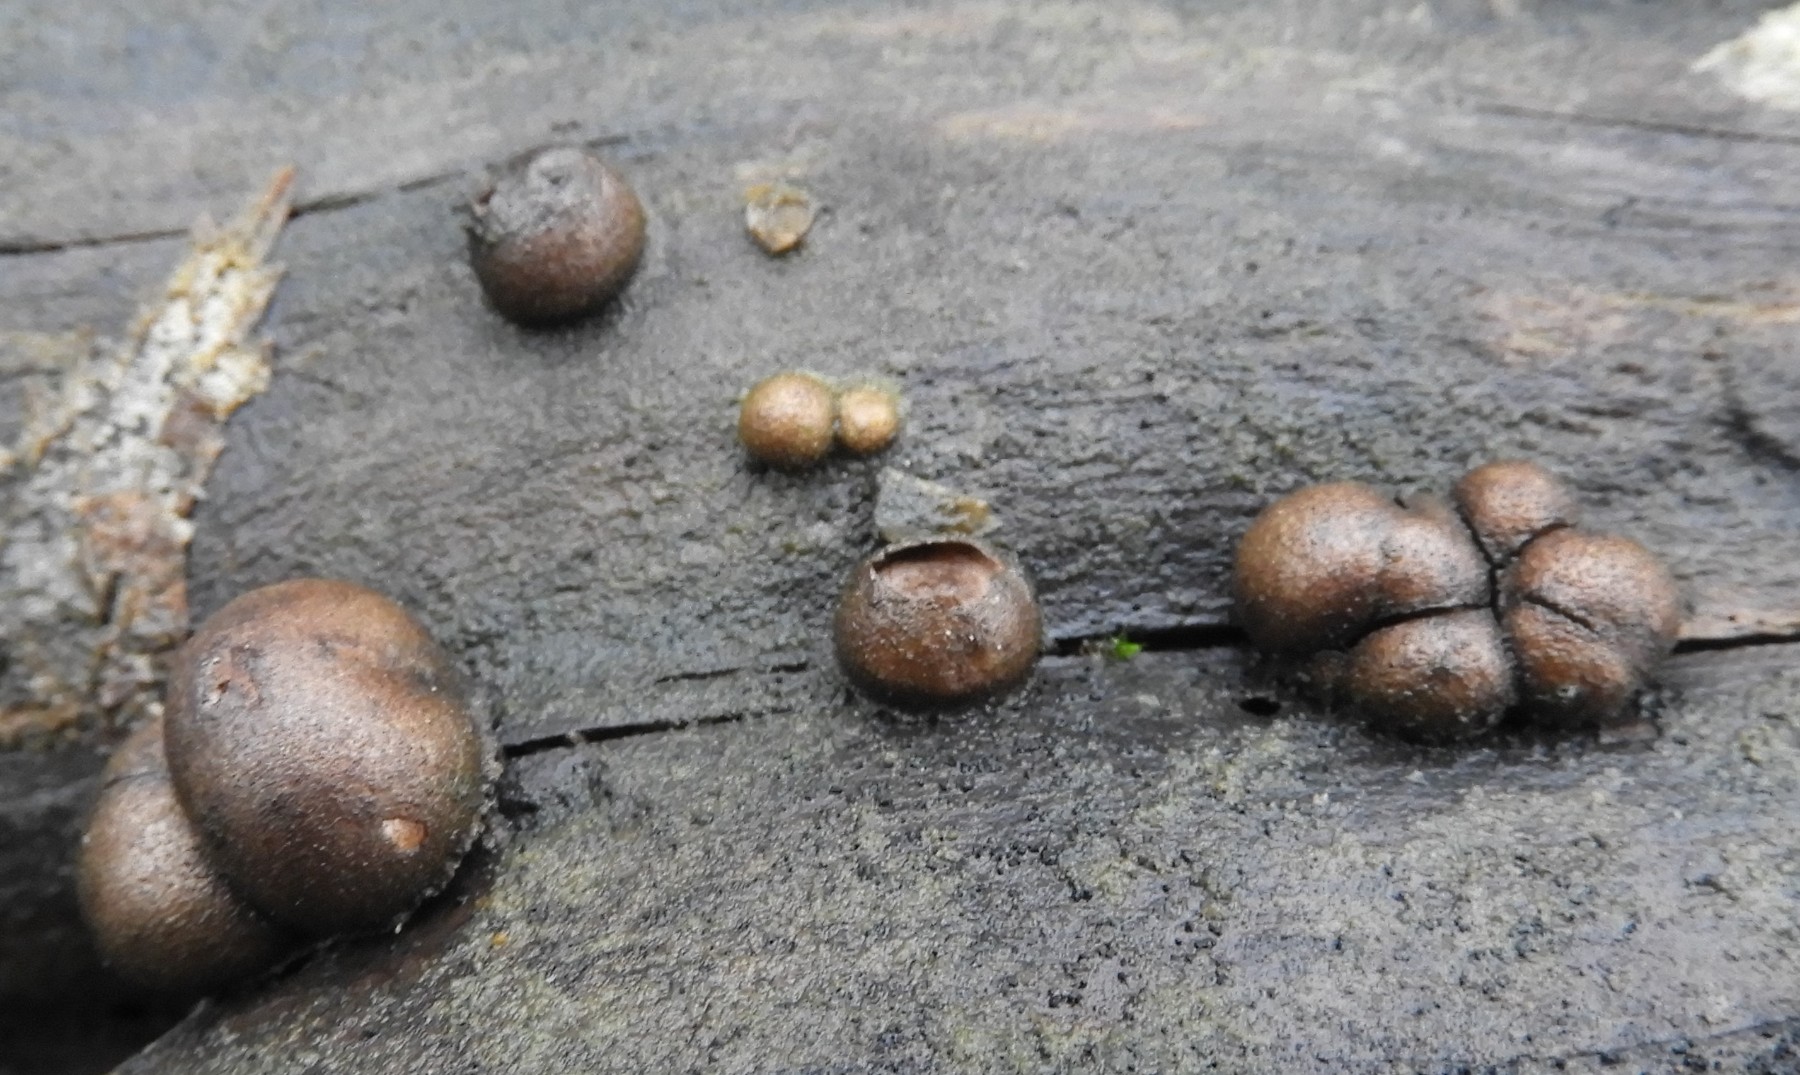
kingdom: Protozoa
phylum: Mycetozoa
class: Myxomycetes
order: Cribrariales
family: Tubiferaceae
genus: Lycogala
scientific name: Lycogala epidendrum
